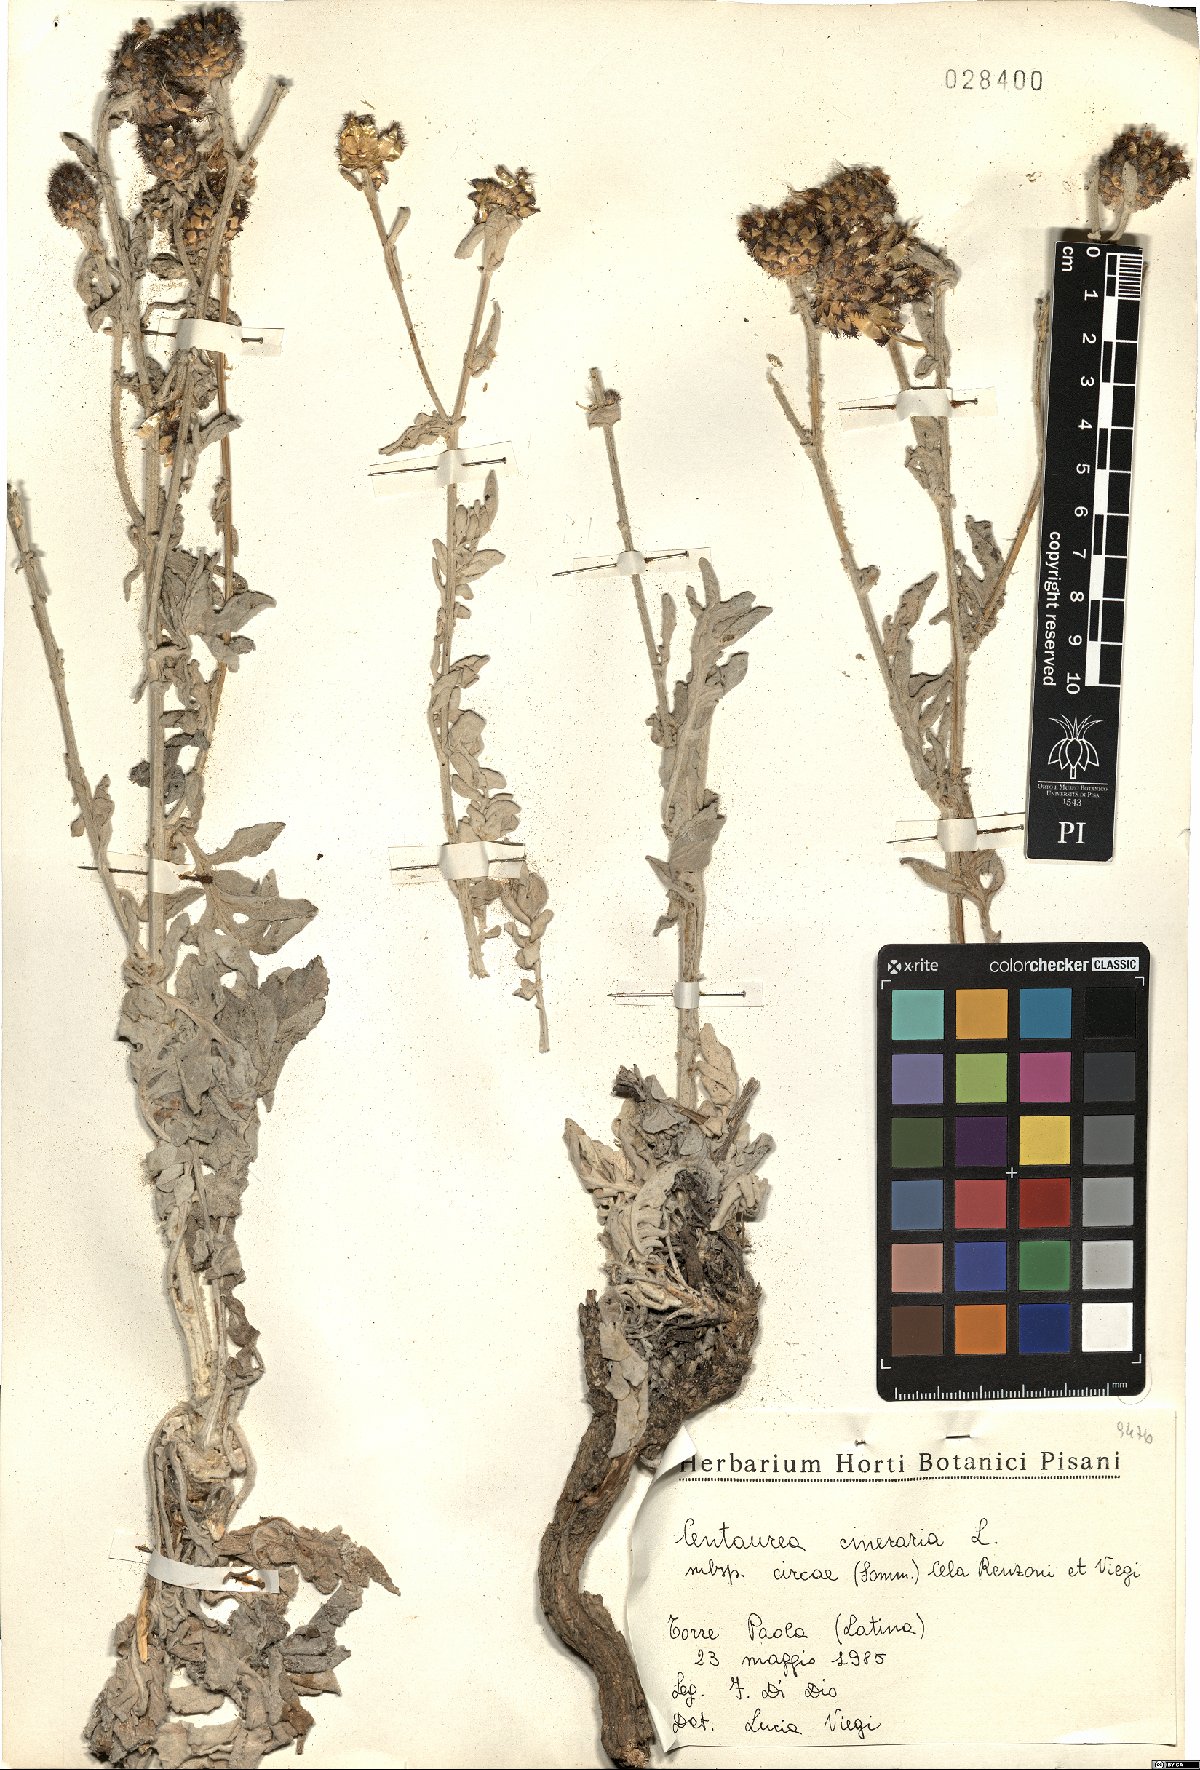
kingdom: Plantae
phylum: Tracheophyta
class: Magnoliopsida
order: Asterales
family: Asteraceae
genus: Centaurea
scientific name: Centaurea cineraria
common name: Dusty miller
